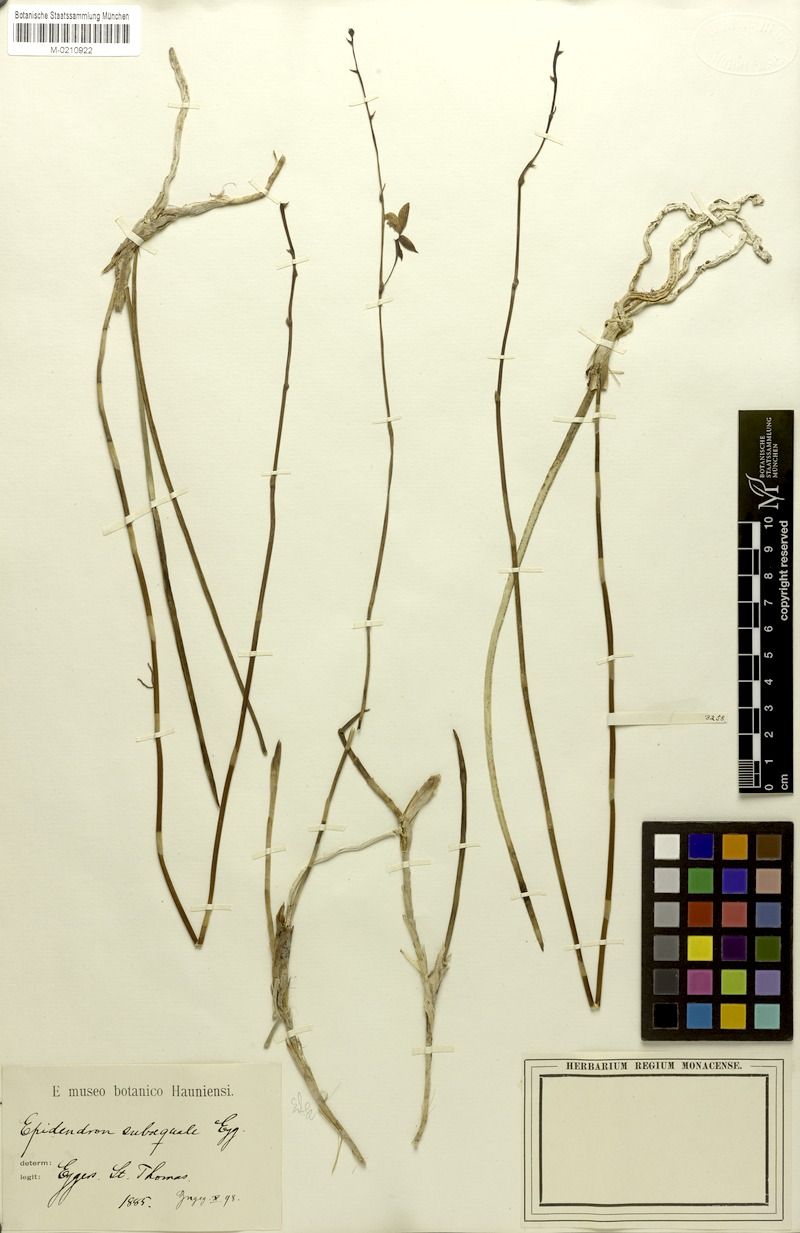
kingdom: Plantae
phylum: Tracheophyta
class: Liliopsida
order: Asparagales
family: Orchidaceae
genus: Tetramicra
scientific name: Tetramicra canaliculata
